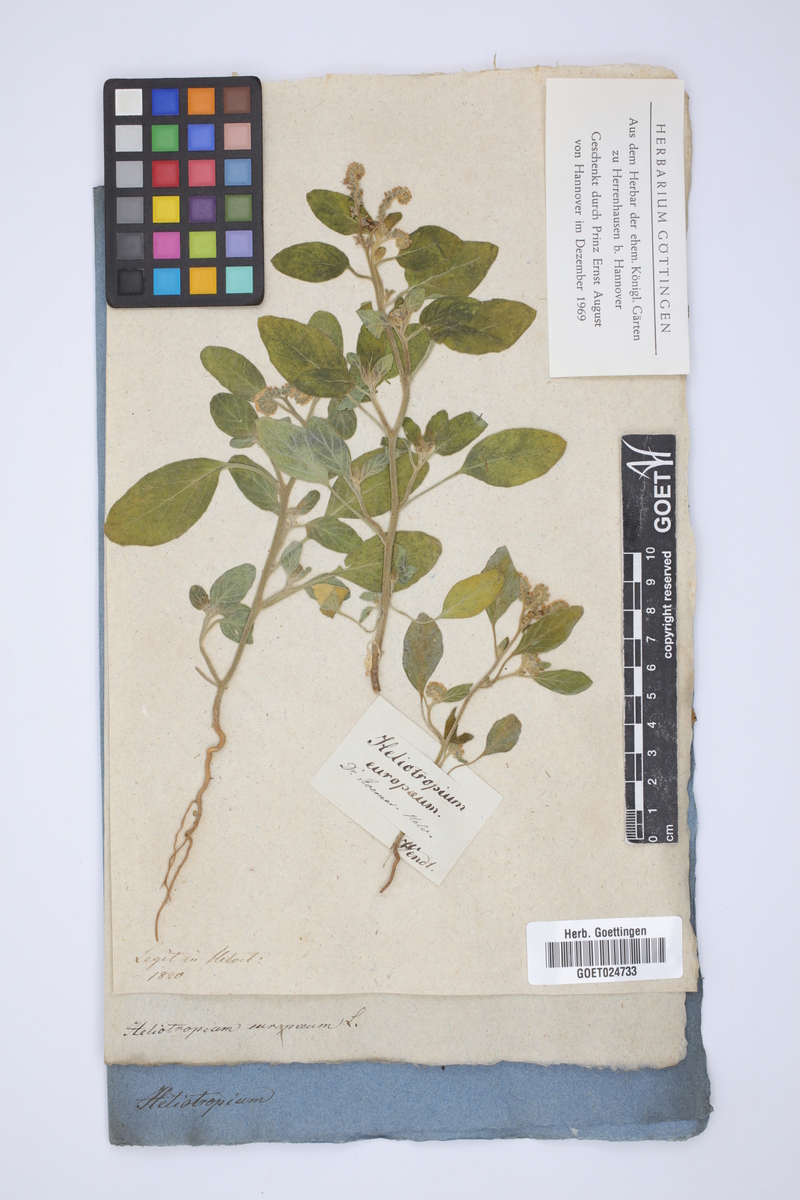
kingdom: Plantae
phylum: Tracheophyta
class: Magnoliopsida
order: Boraginales
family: Heliotropiaceae
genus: Heliotropium
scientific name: Heliotropium europaeum
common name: European heliotrope
